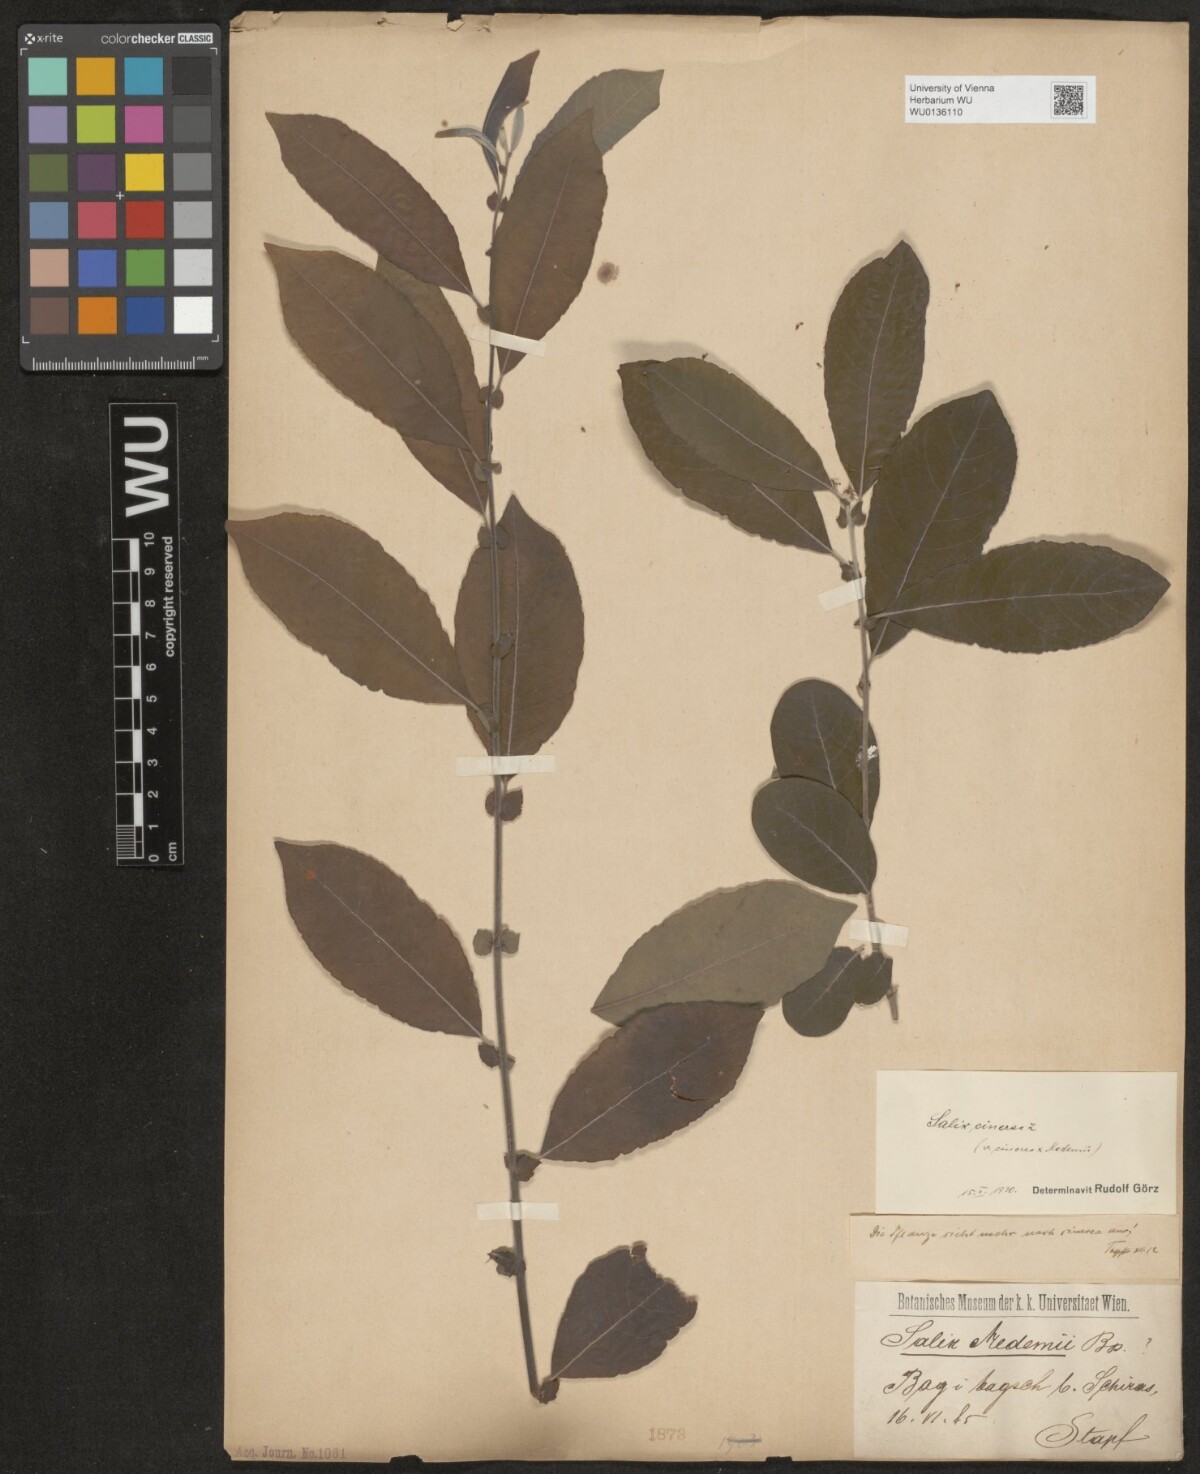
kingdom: Plantae
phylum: Tracheophyta
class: Magnoliopsida
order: Malpighiales
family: Salicaceae
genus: Salix
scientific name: Salix cinerea
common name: Common sallow
